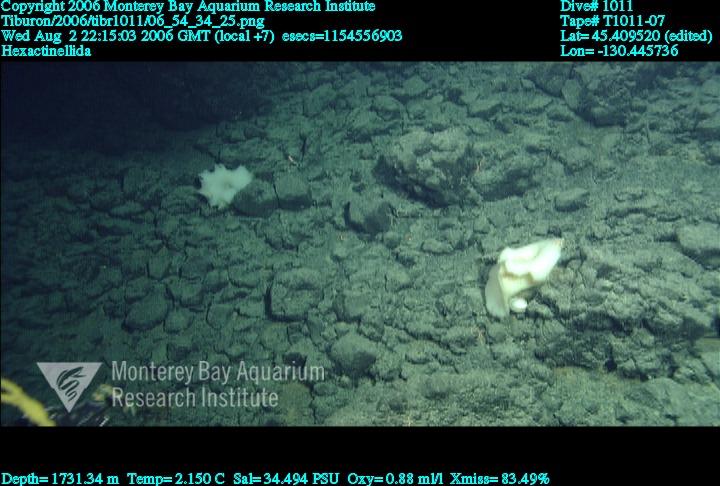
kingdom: Animalia
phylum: Porifera
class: Hexactinellida
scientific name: Hexactinellida
